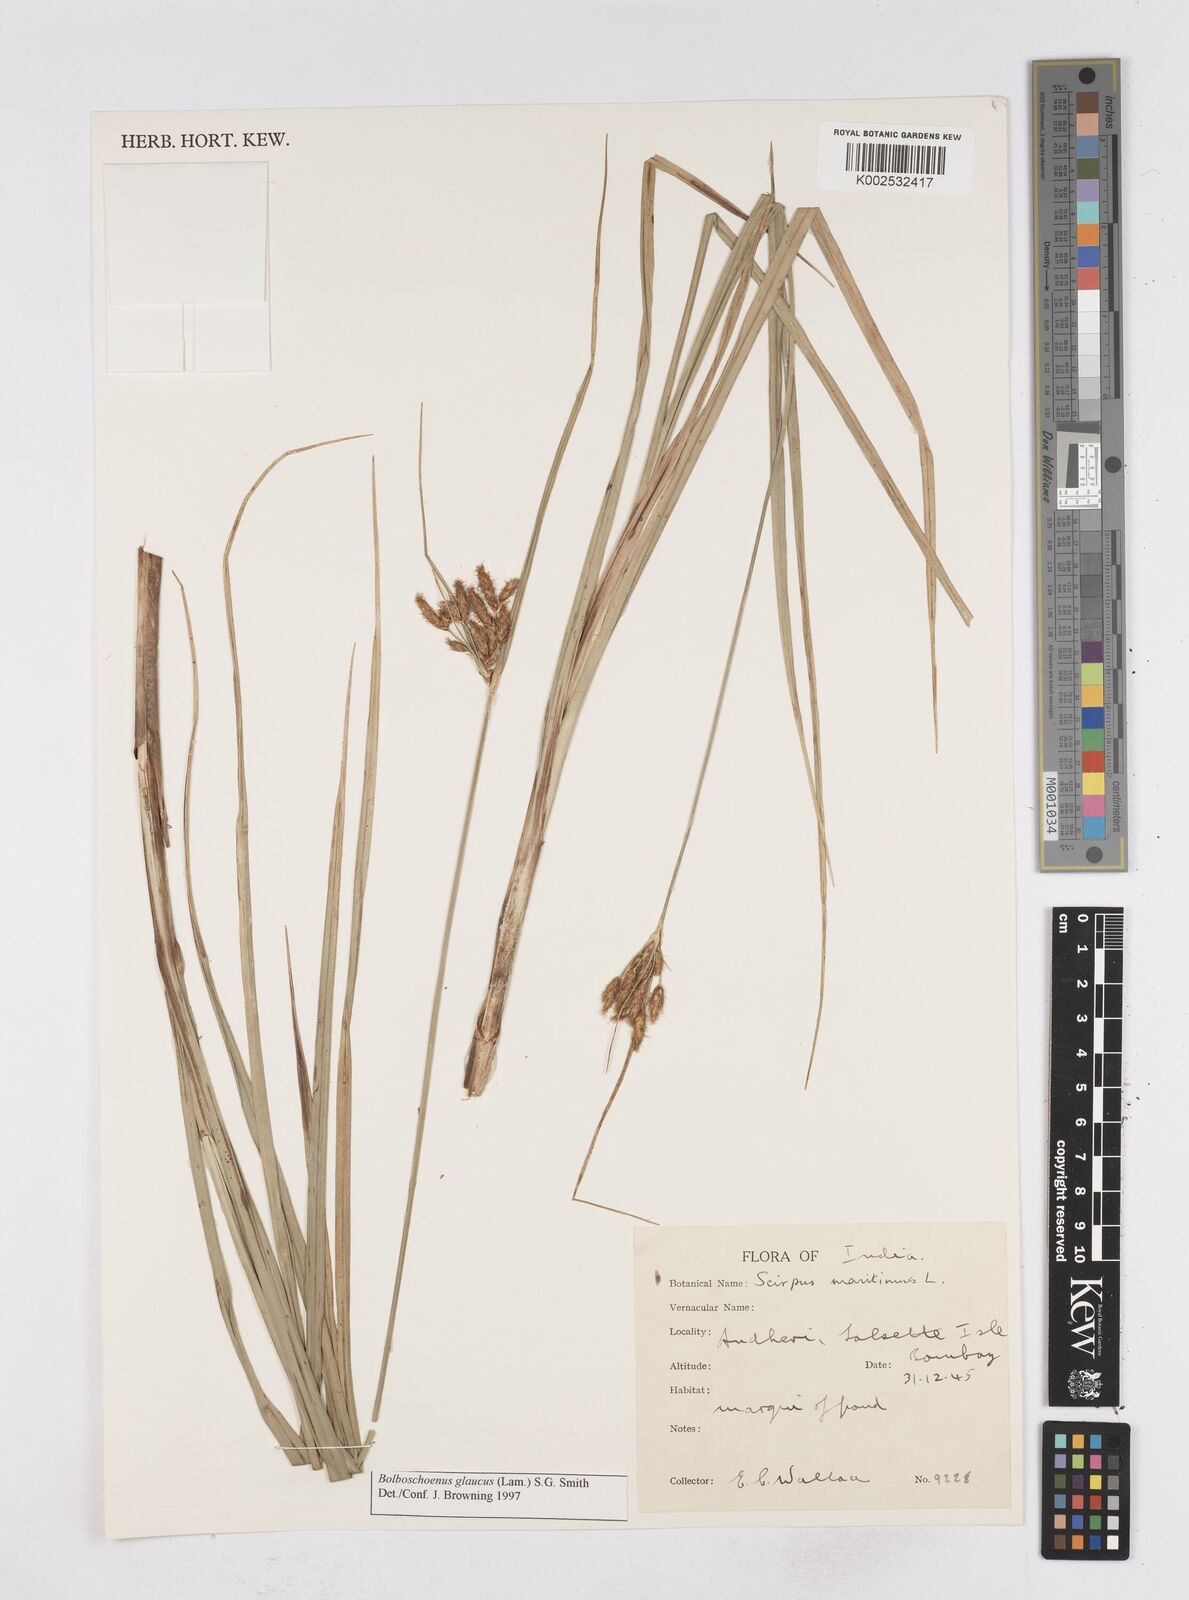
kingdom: Plantae
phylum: Tracheophyta
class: Liliopsida
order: Poales
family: Cyperaceae
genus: Bolboschoenus
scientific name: Bolboschoenus maritimus
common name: Sea club-rush
